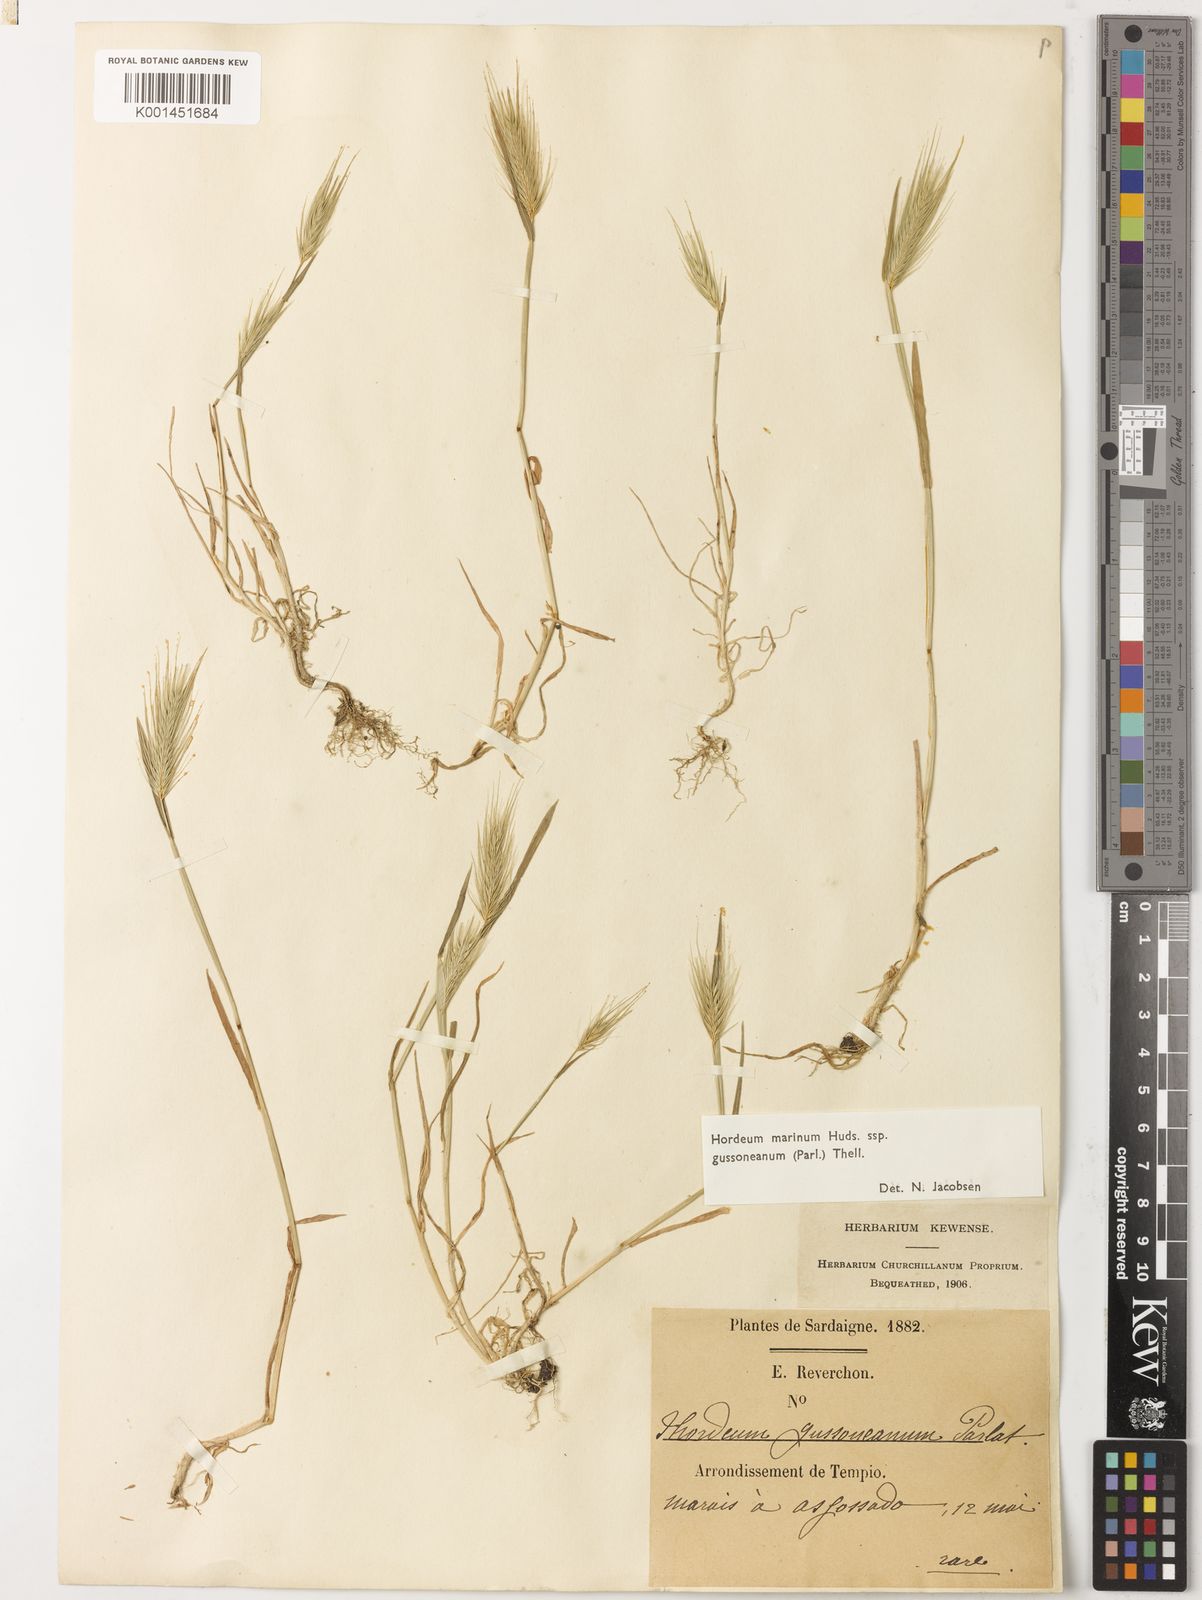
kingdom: Plantae
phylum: Tracheophyta
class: Liliopsida
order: Poales
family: Poaceae
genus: Hordeum
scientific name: Hordeum marinum
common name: Sea barley
